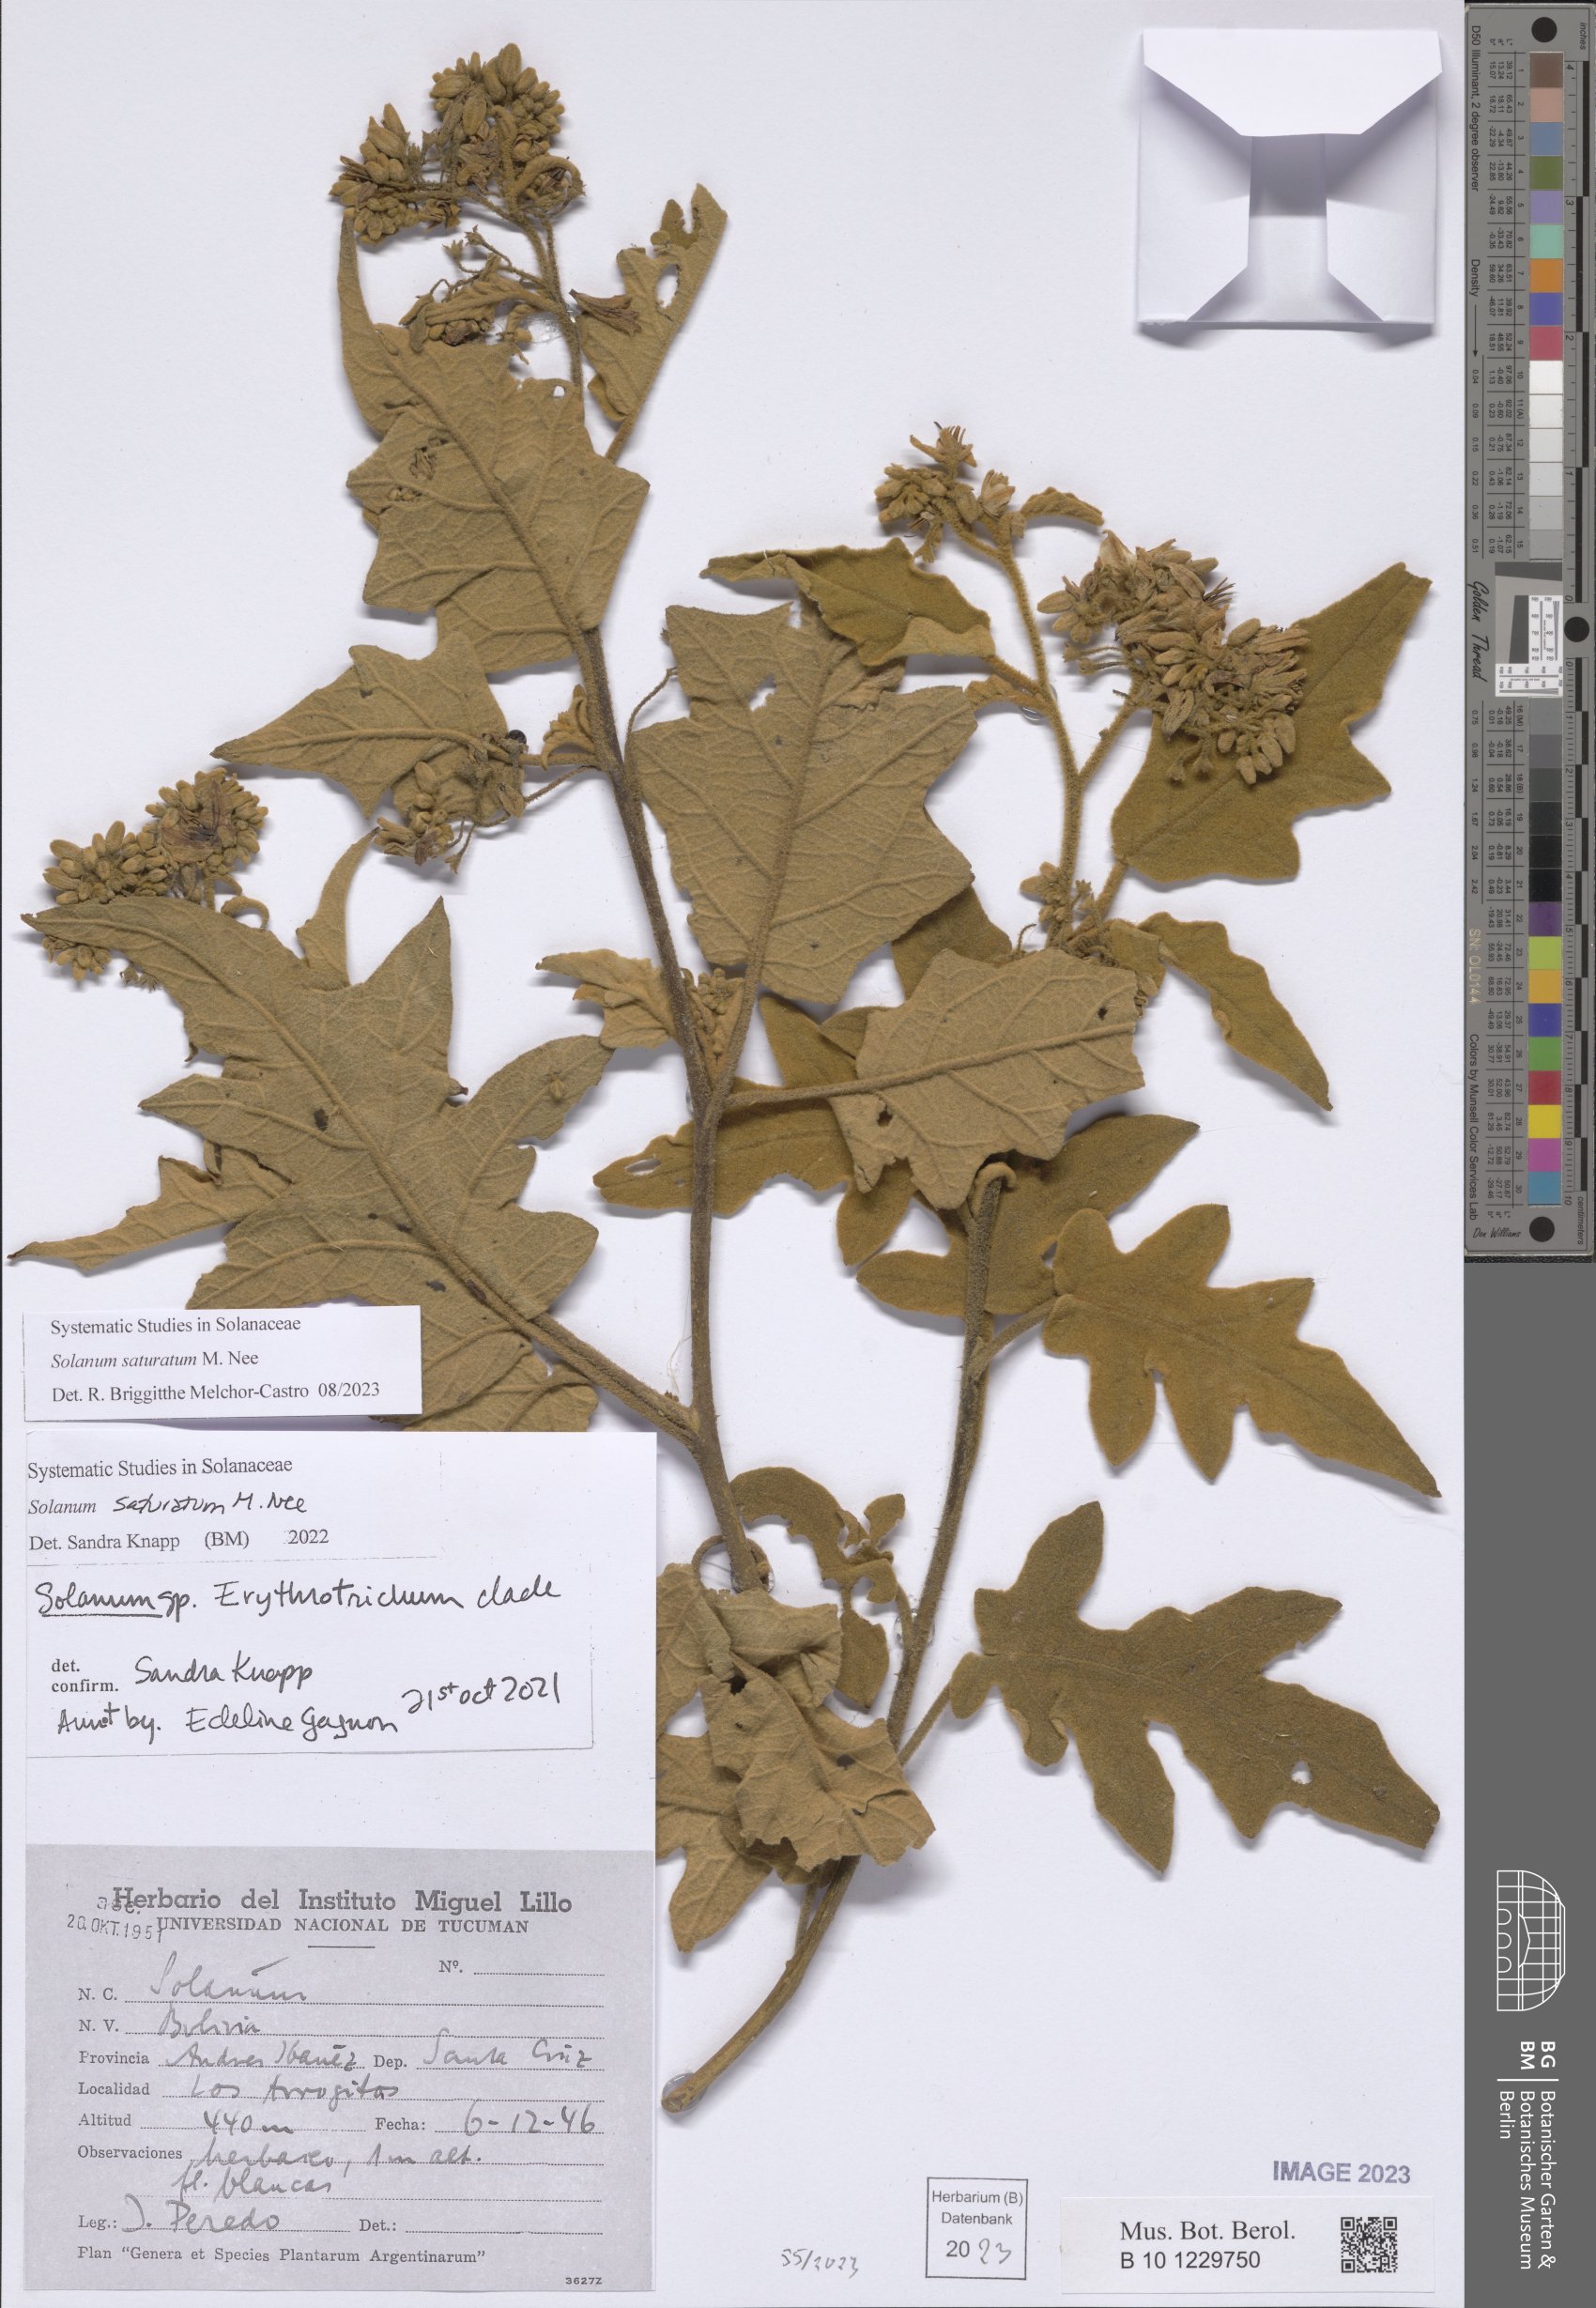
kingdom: Plantae
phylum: Tracheophyta
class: Magnoliopsida
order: Solanales
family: Solanaceae
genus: Solanum
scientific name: Solanum saturatum
